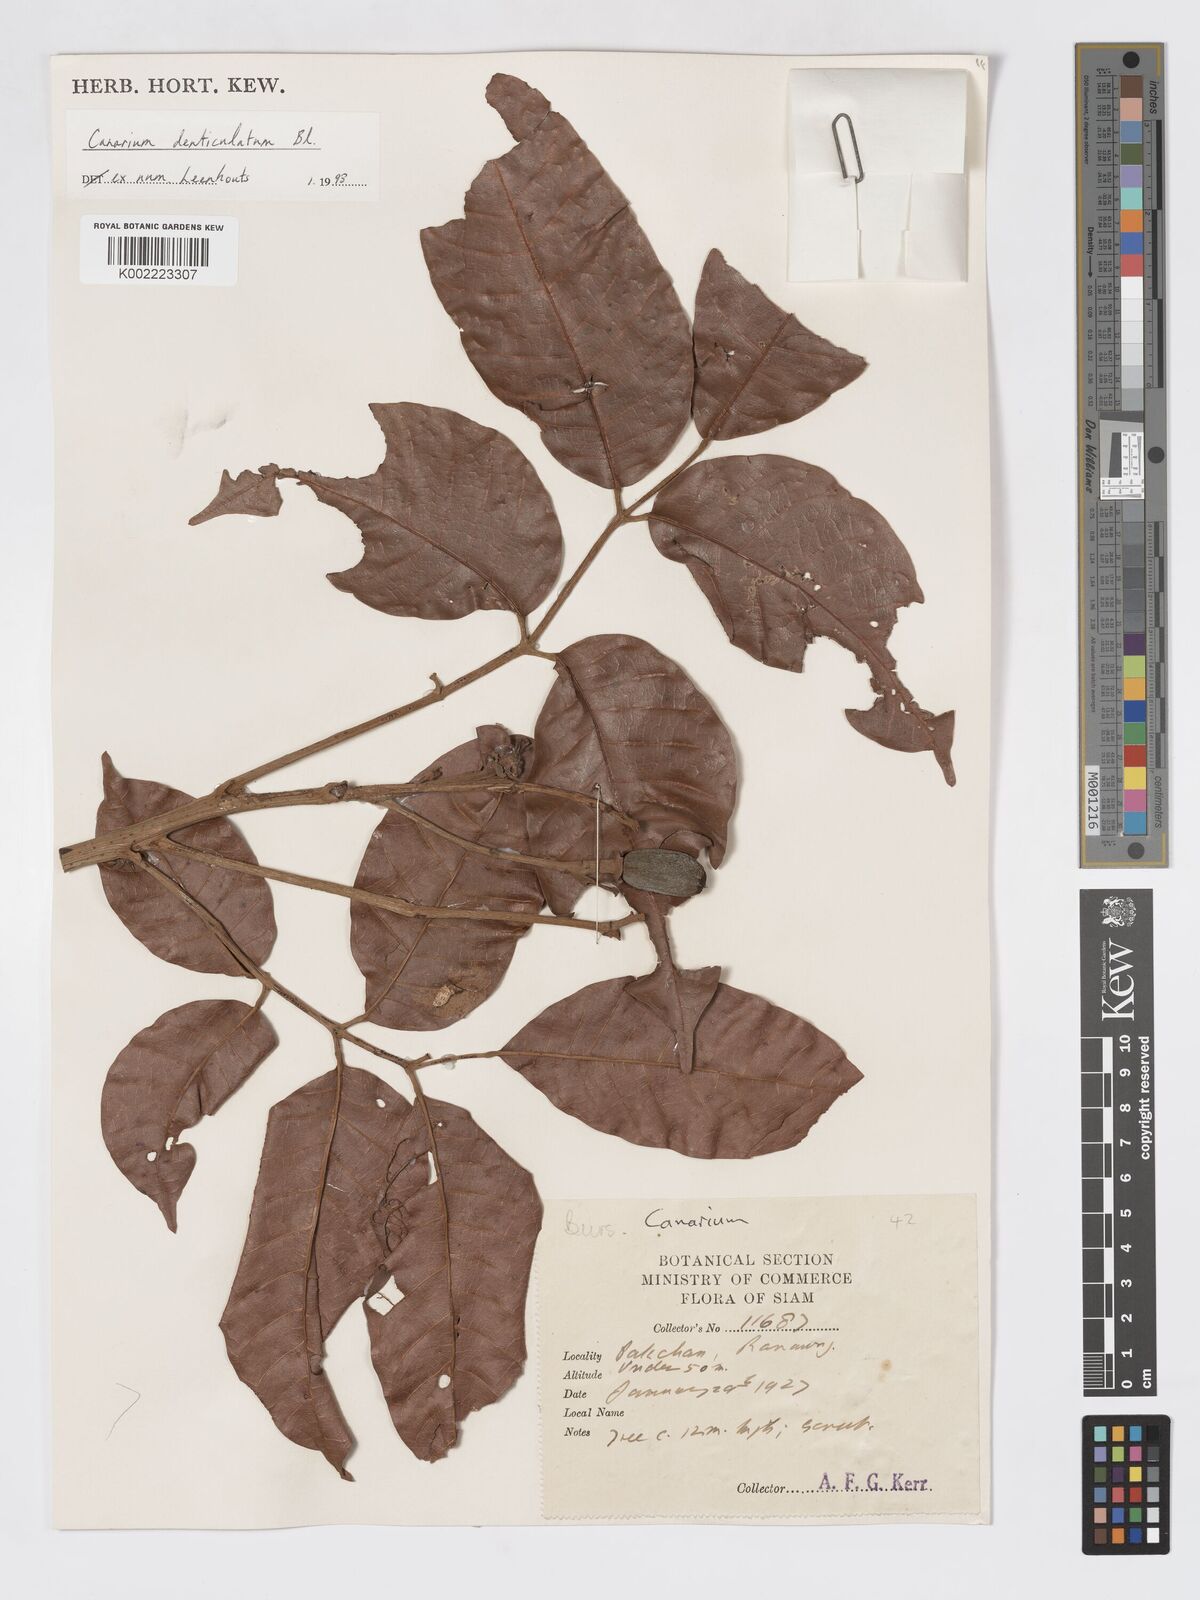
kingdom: Plantae
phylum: Tracheophyta
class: Magnoliopsida
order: Sapindales
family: Burseraceae
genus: Canarium
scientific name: Canarium denticulatum
